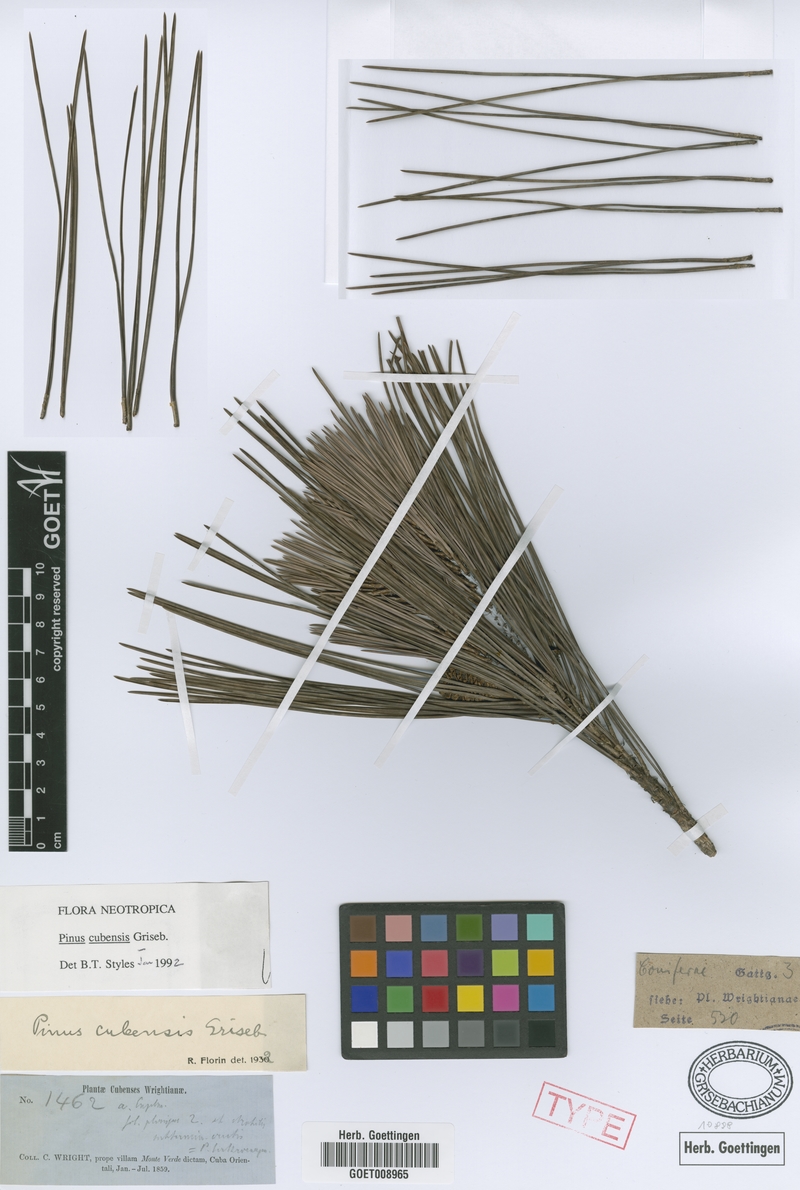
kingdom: Plantae
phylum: Tracheophyta
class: Pinopsida
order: Pinales
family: Pinaceae
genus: Pinus
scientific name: Pinus cubensis
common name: Cuban pine
